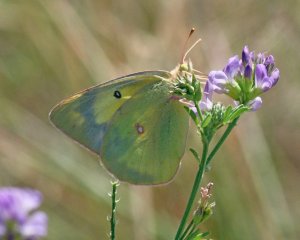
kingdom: Animalia
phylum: Arthropoda
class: Insecta
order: Lepidoptera
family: Pieridae
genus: Colias
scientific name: Colias philodice
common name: Clouded Sulphur
